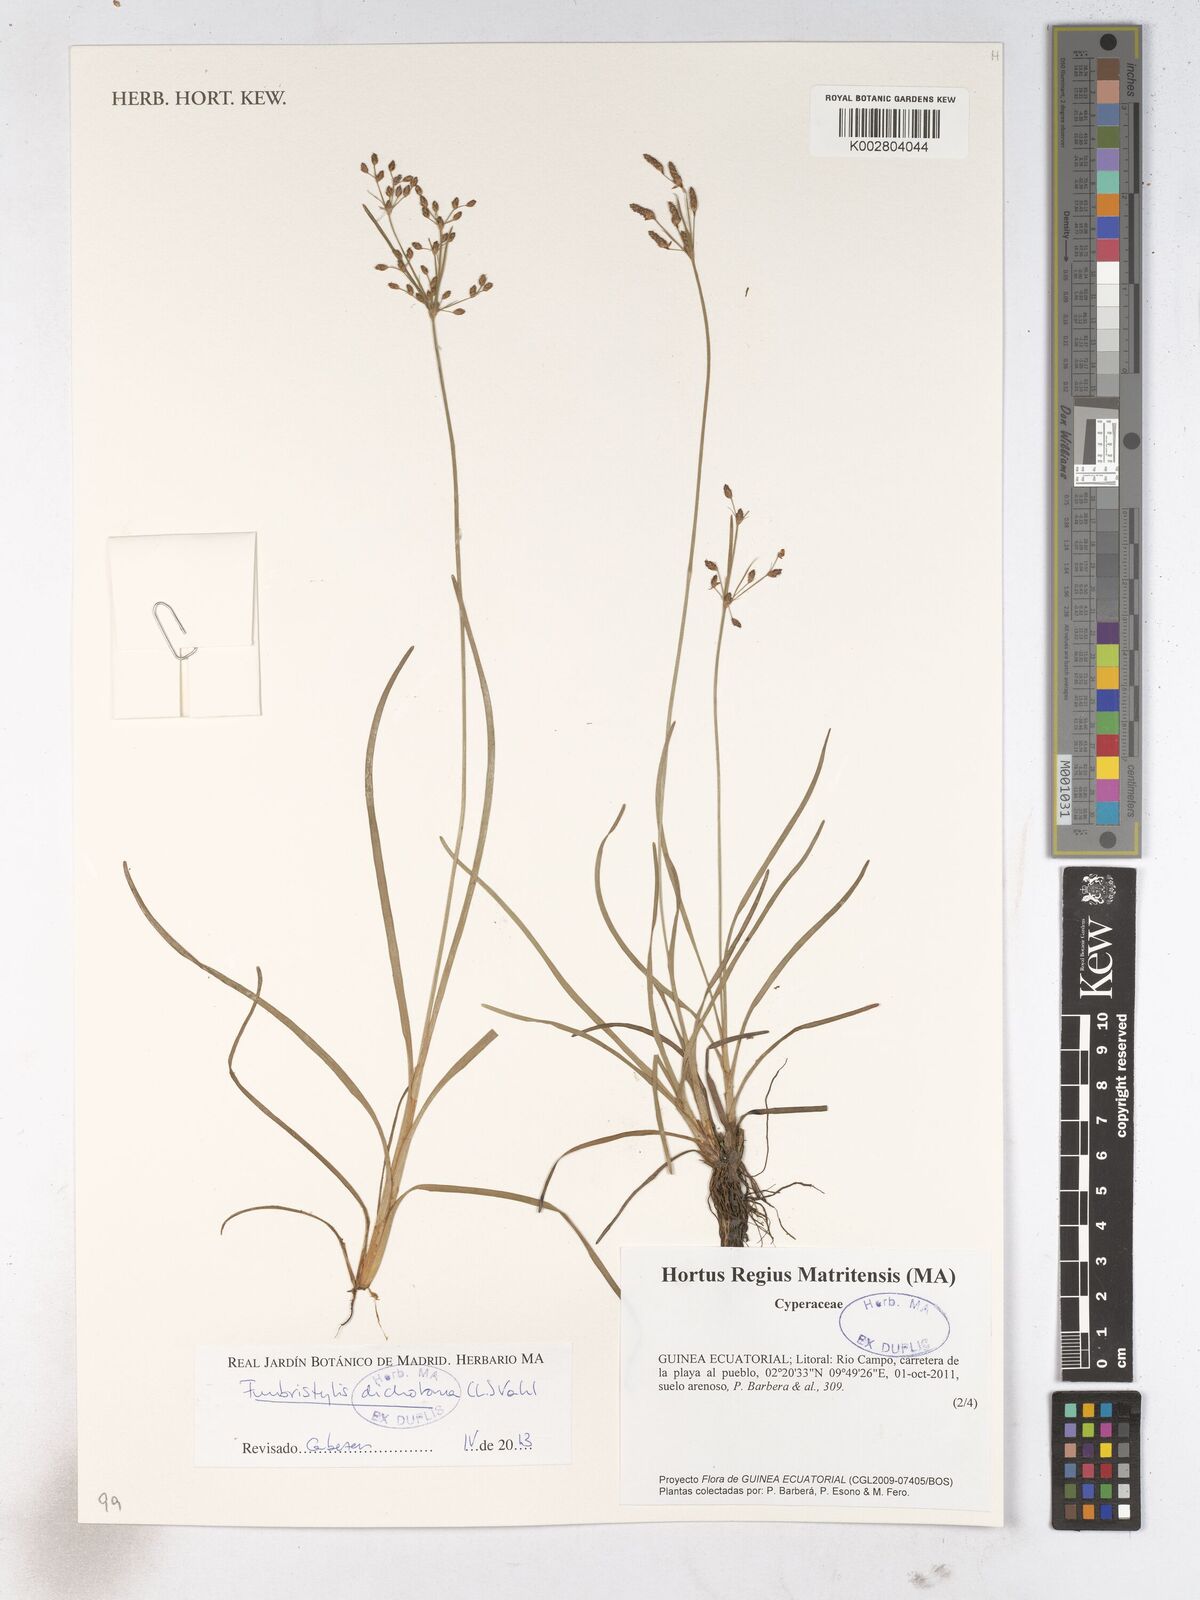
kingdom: Plantae
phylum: Tracheophyta
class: Liliopsida
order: Poales
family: Cyperaceae
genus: Fimbristylis
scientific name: Fimbristylis dichotoma
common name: Forked fimbry
